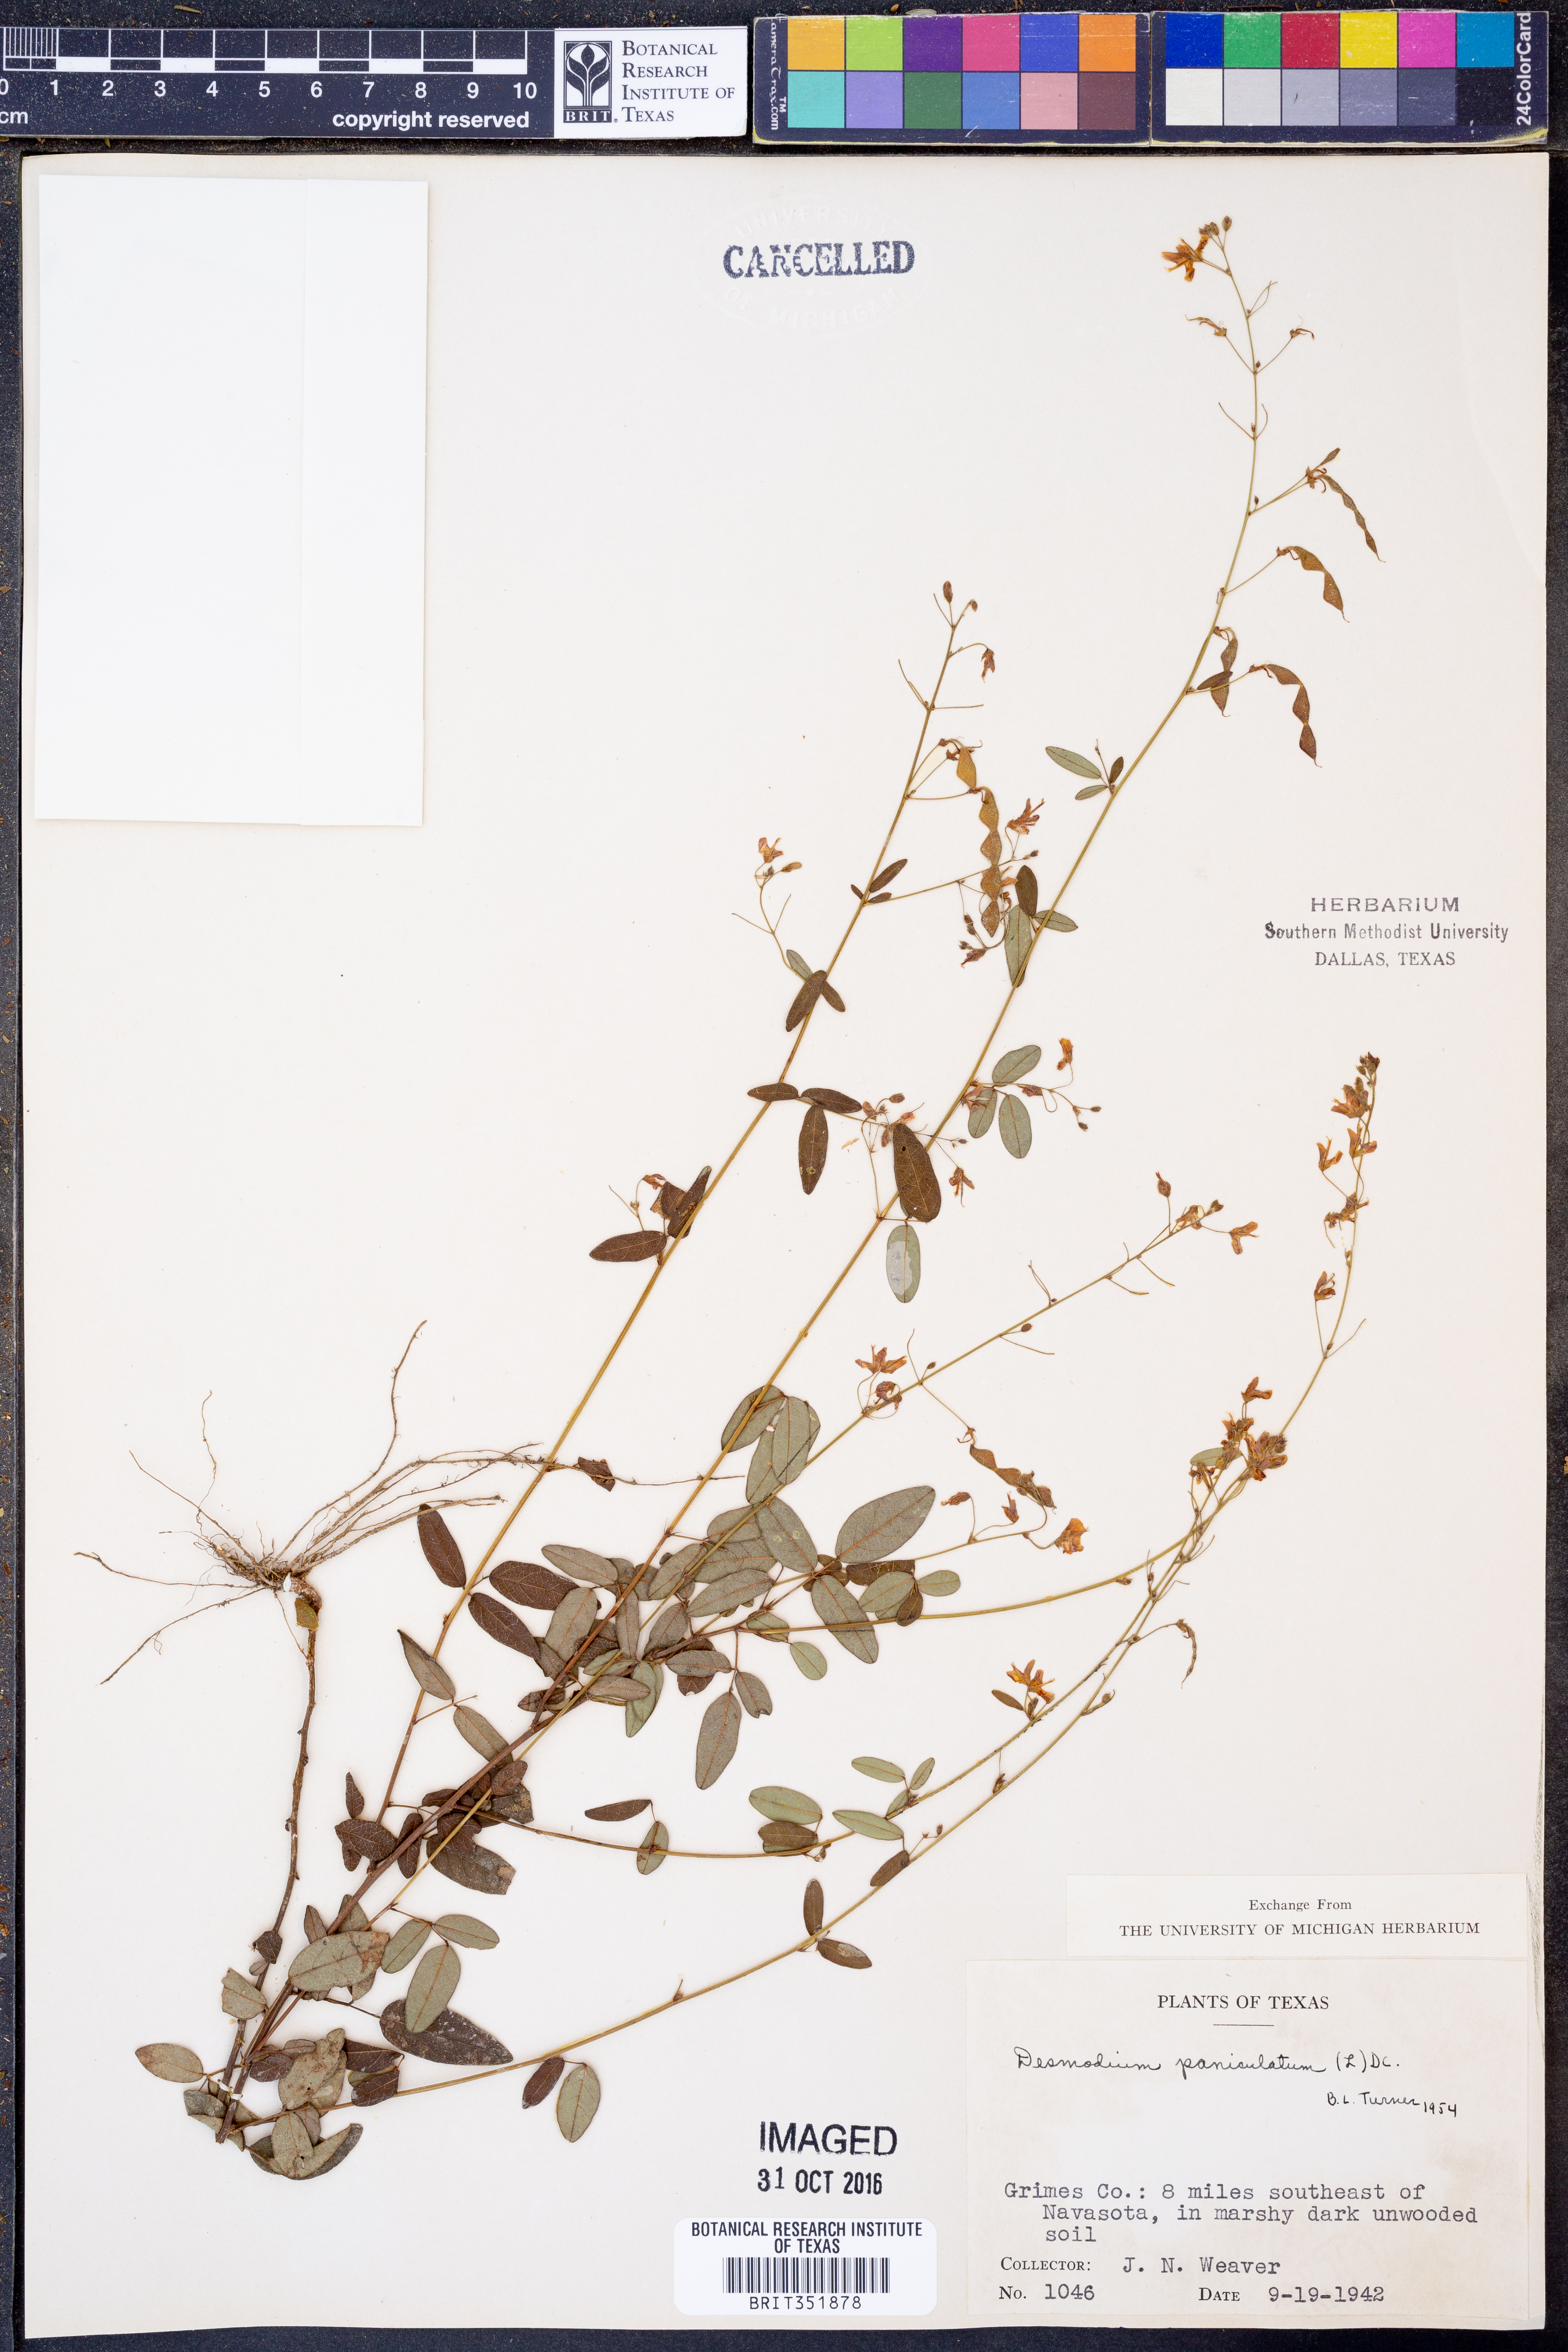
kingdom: Plantae
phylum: Tracheophyta
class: Magnoliopsida
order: Fabales
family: Fabaceae
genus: Desmodium
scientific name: Desmodium paniculatum
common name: Panicled tick-clover
